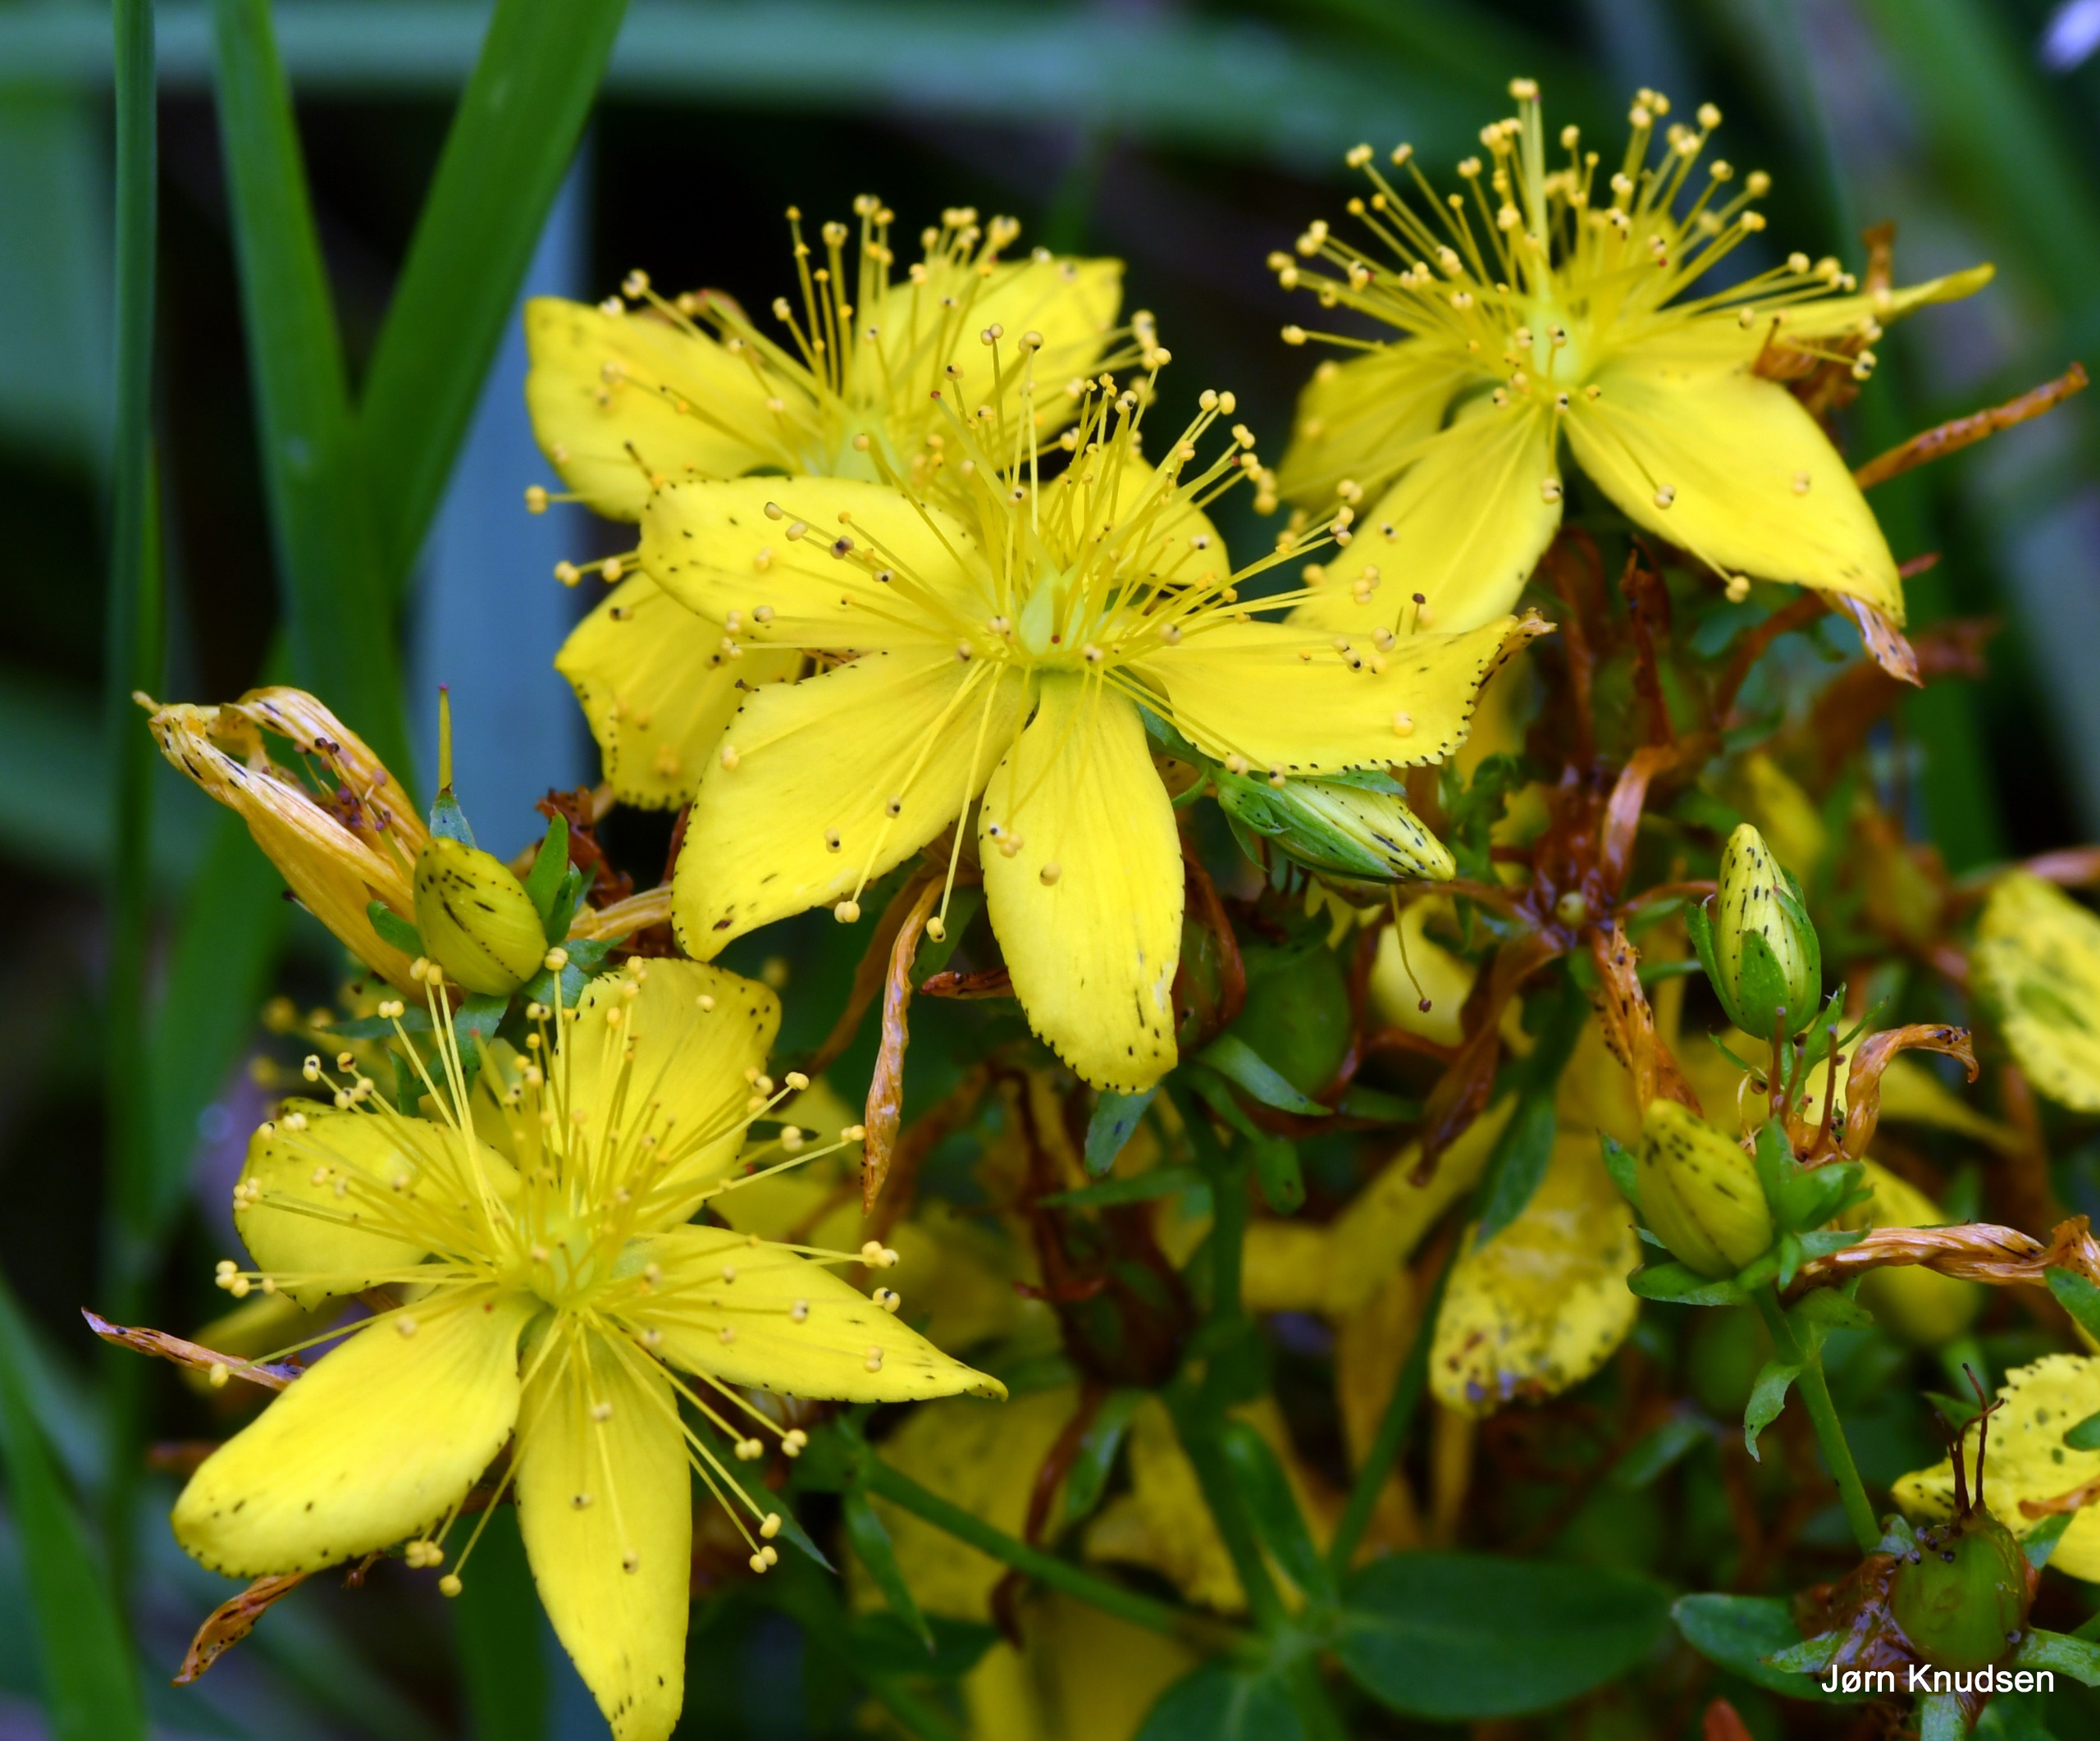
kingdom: Plantae
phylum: Tracheophyta
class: Magnoliopsida
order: Malpighiales
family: Hypericaceae
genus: Hypericum
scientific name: Hypericum perforatum
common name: Prikbladet perikon
